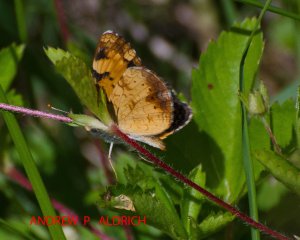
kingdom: Animalia
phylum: Arthropoda
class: Insecta
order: Lepidoptera
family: Nymphalidae
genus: Phyciodes
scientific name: Phyciodes tharos
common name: Northern Crescent
